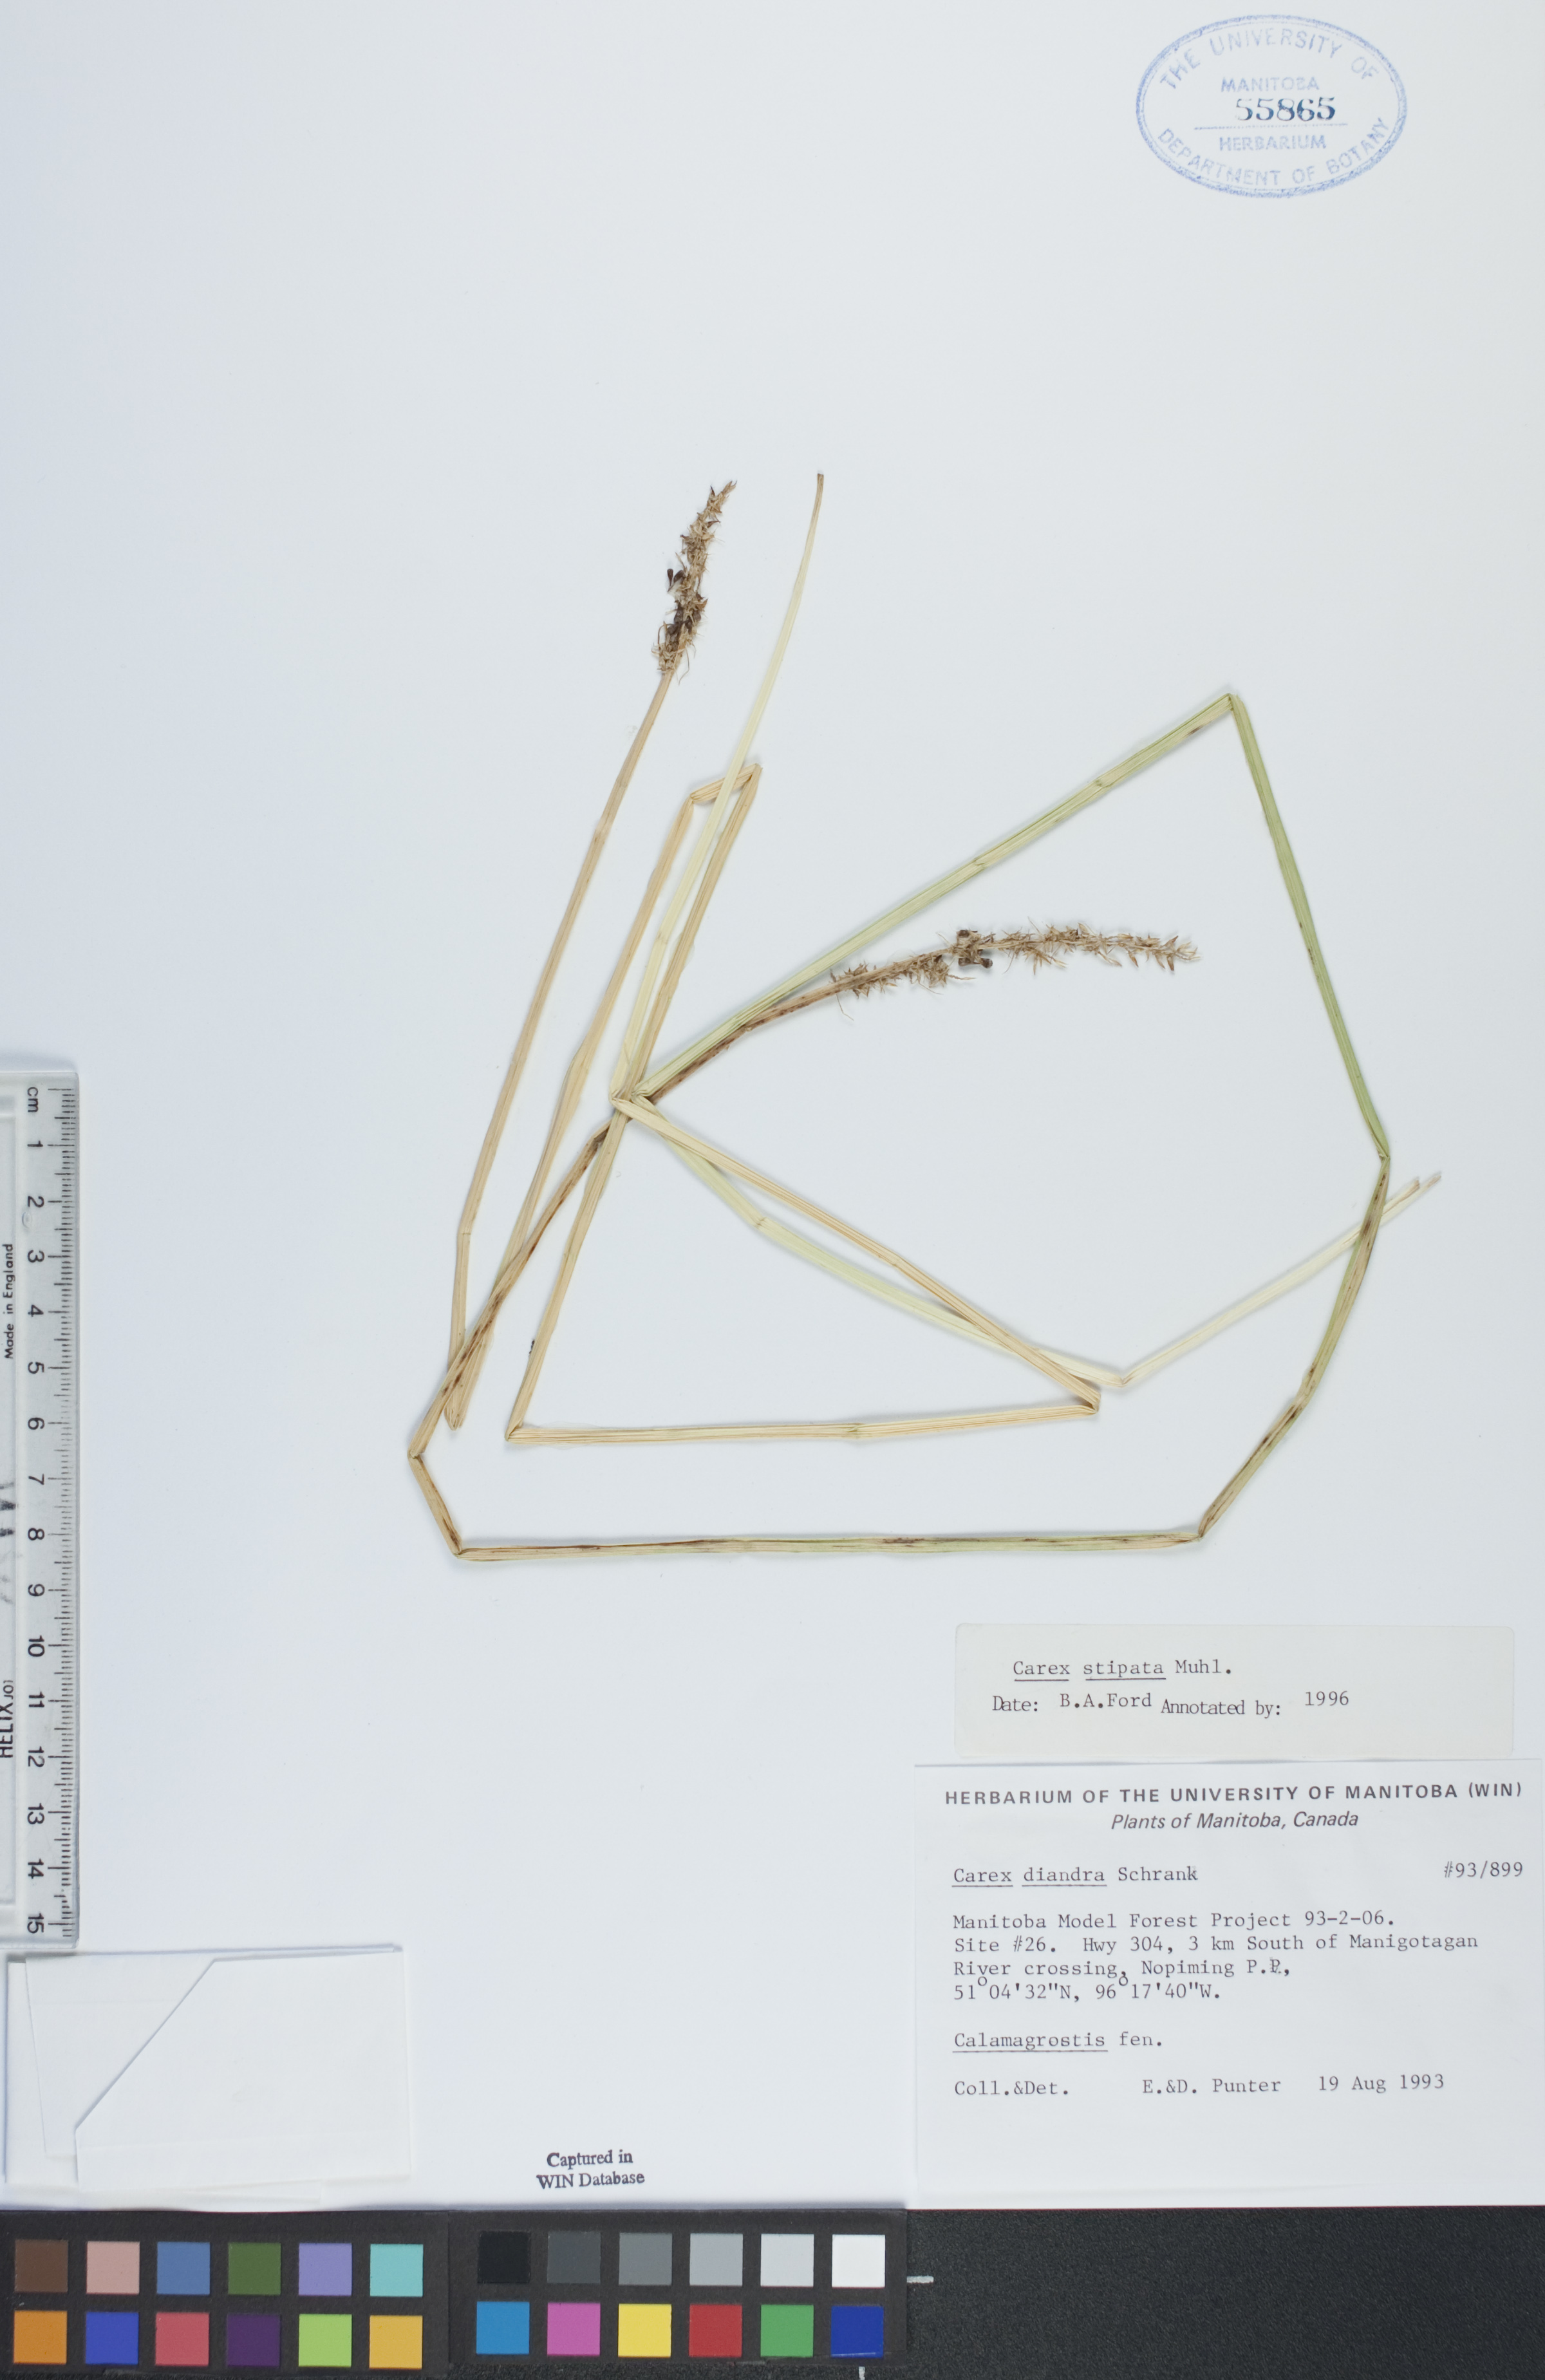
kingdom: Plantae
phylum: Tracheophyta
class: Liliopsida
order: Poales
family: Cyperaceae
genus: Carex
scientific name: Carex stipata
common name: Awl-fruited sedge
